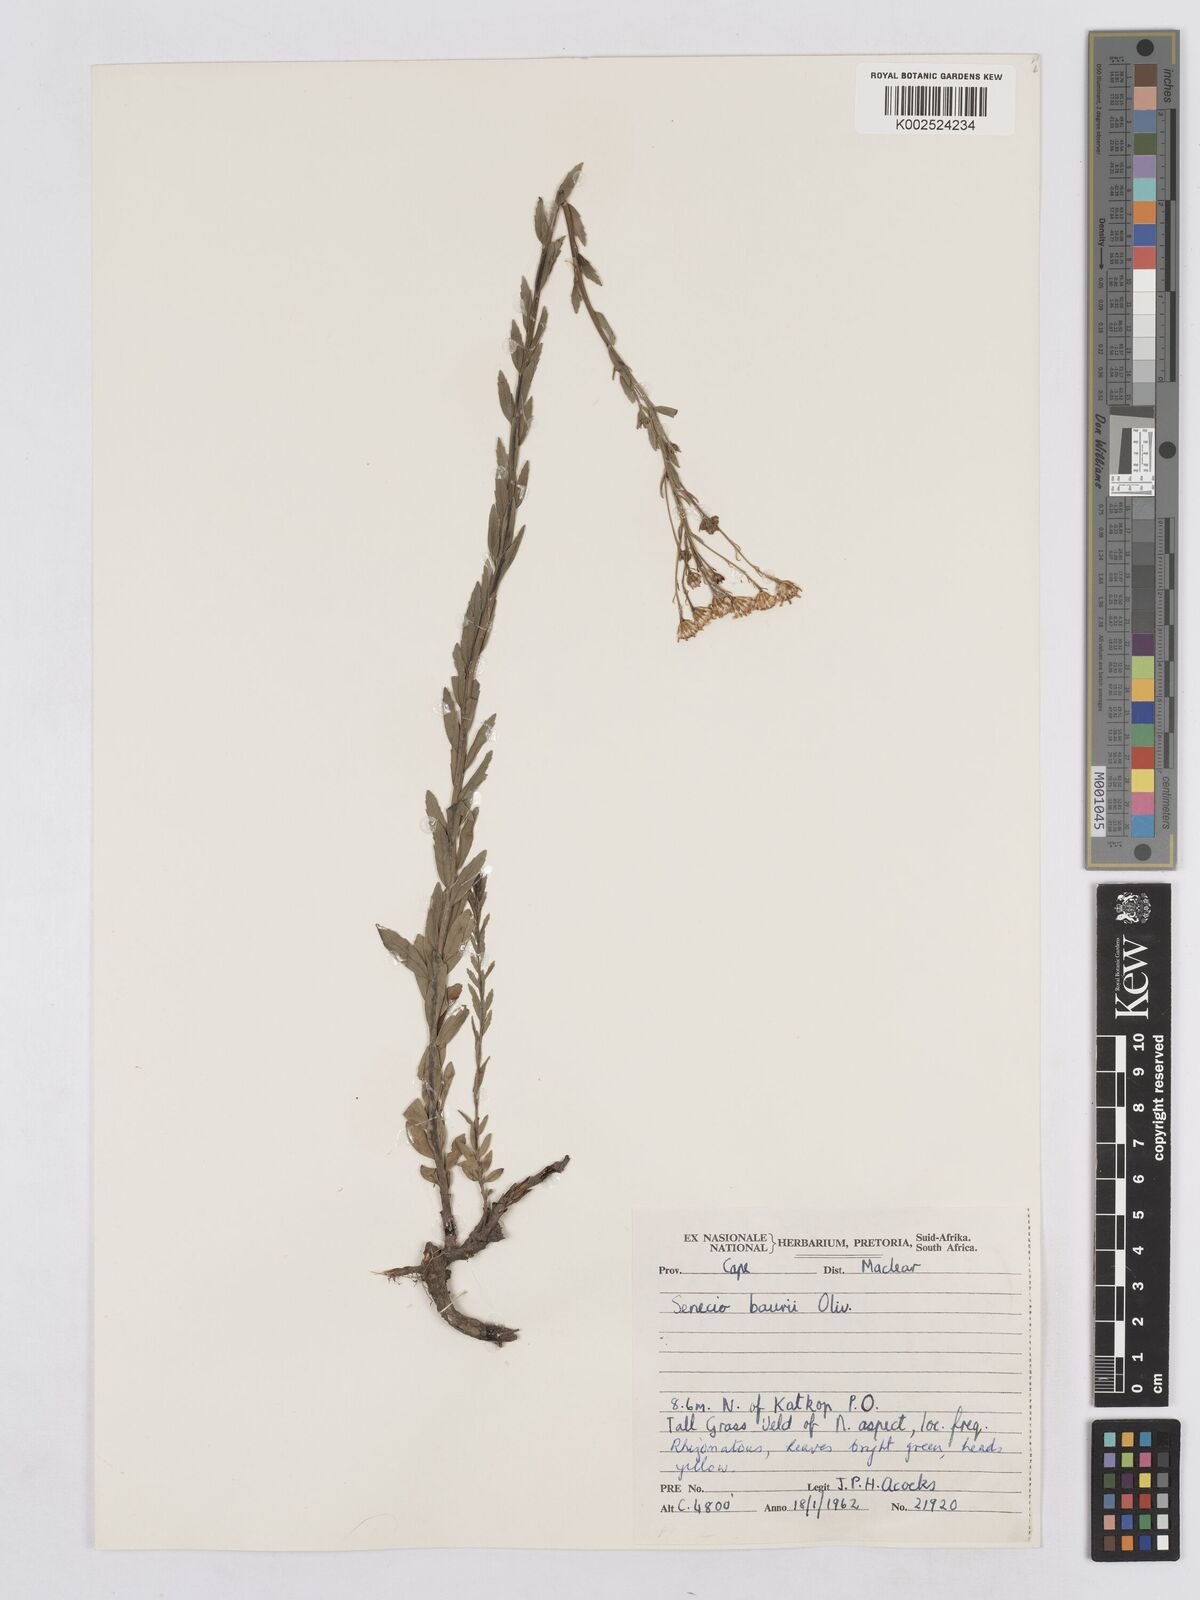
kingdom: Plantae
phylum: Tracheophyta
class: Magnoliopsida
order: Asterales
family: Asteraceae
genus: Senecio
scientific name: Senecio baurii
